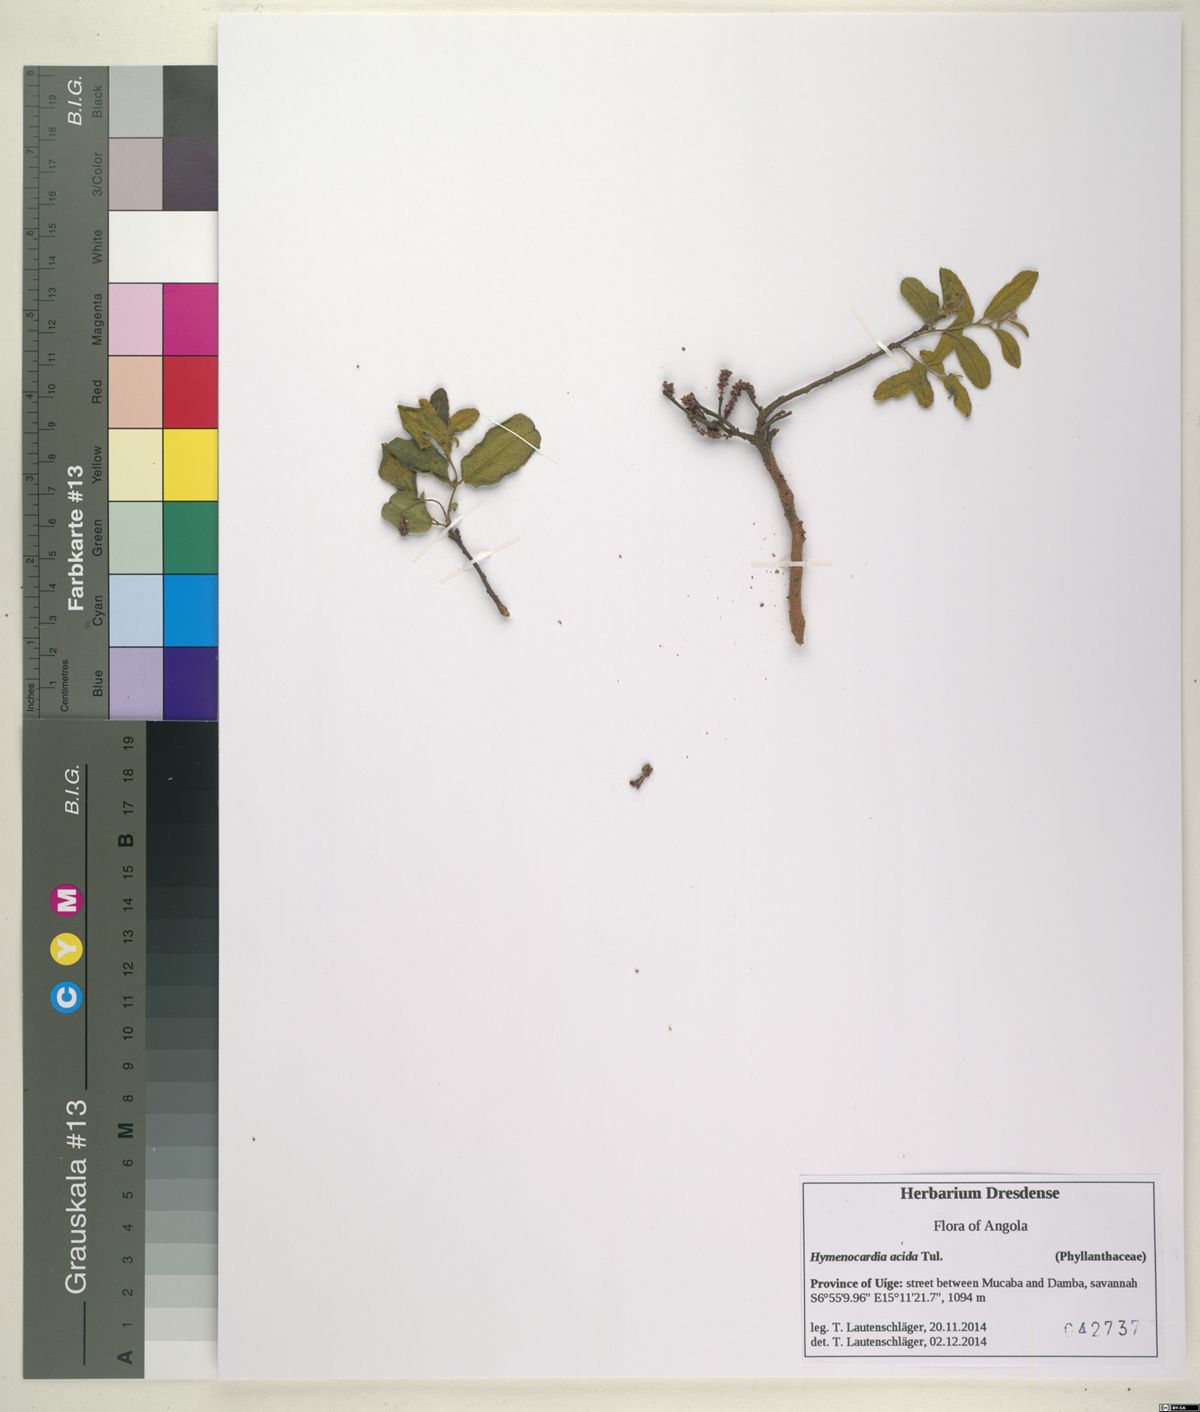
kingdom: Plantae
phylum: Tracheophyta
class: Magnoliopsida
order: Malpighiales
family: Phyllanthaceae
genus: Hymenocardia
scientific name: Hymenocardia acida
